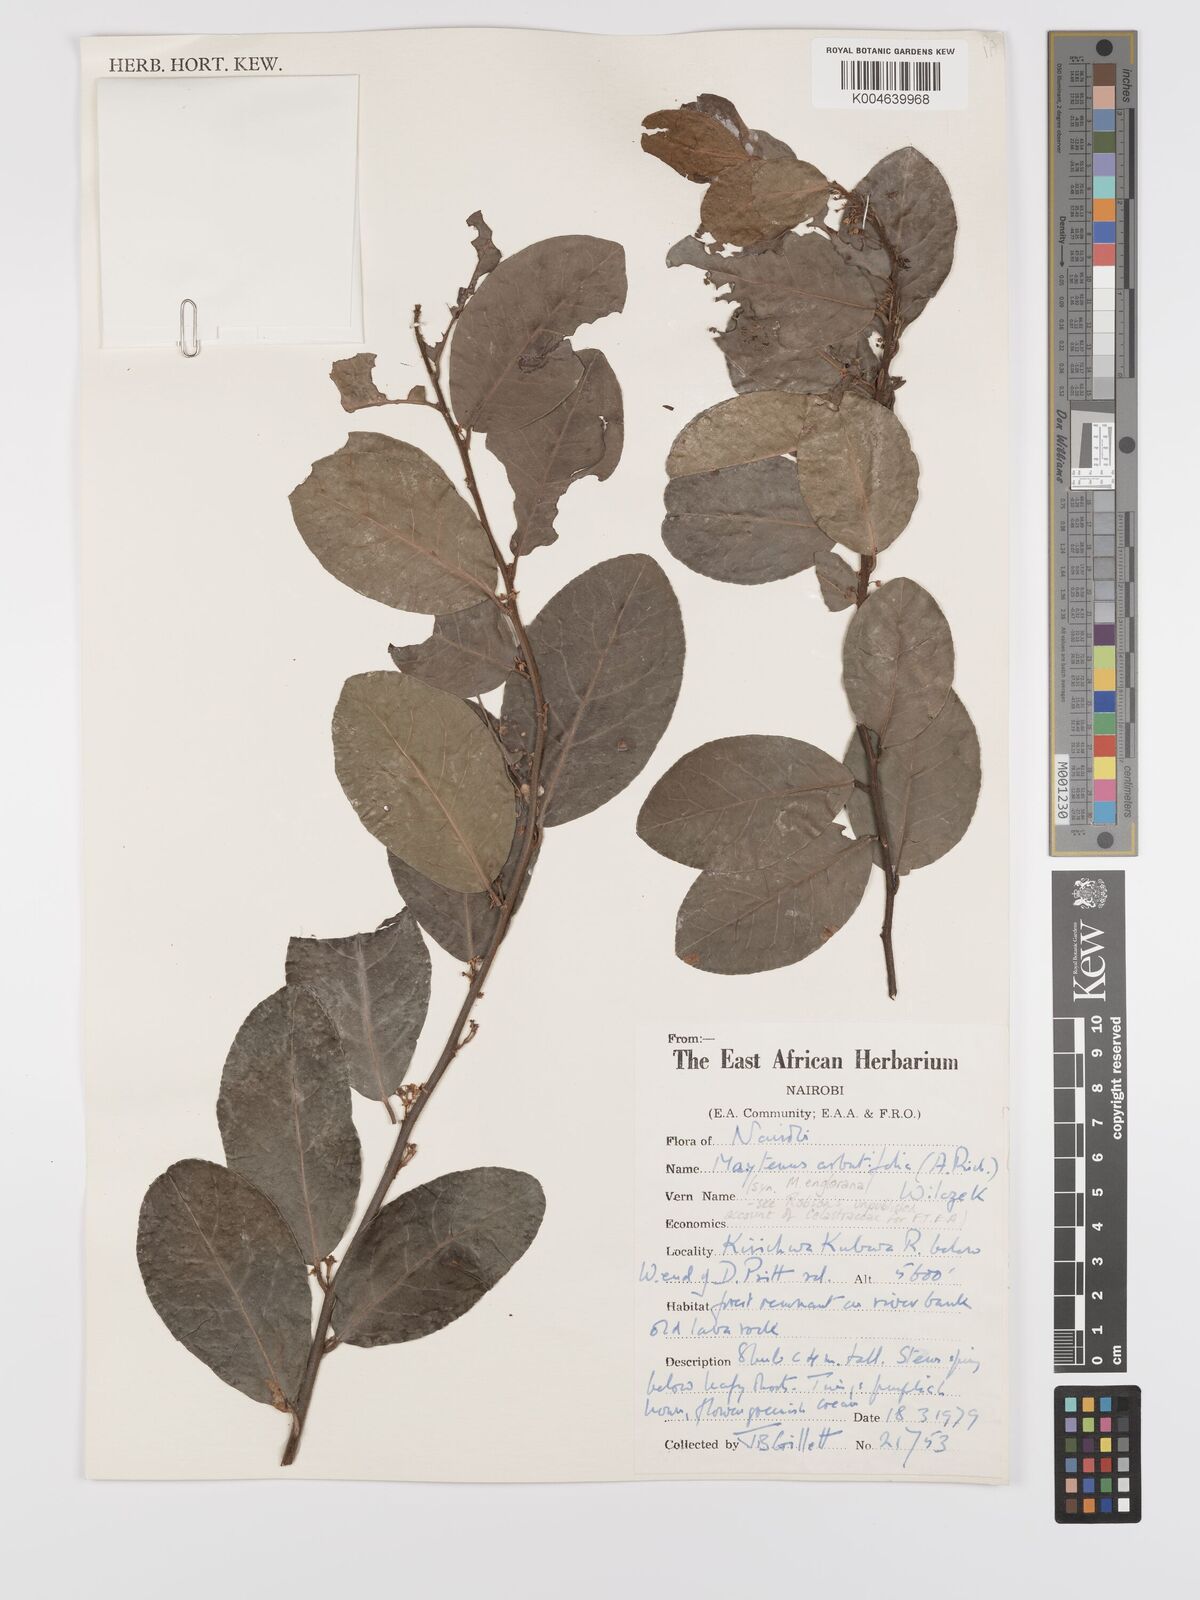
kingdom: Plantae
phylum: Tracheophyta
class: Magnoliopsida
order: Celastrales
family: Celastraceae
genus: Gymnosporia
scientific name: Gymnosporia
